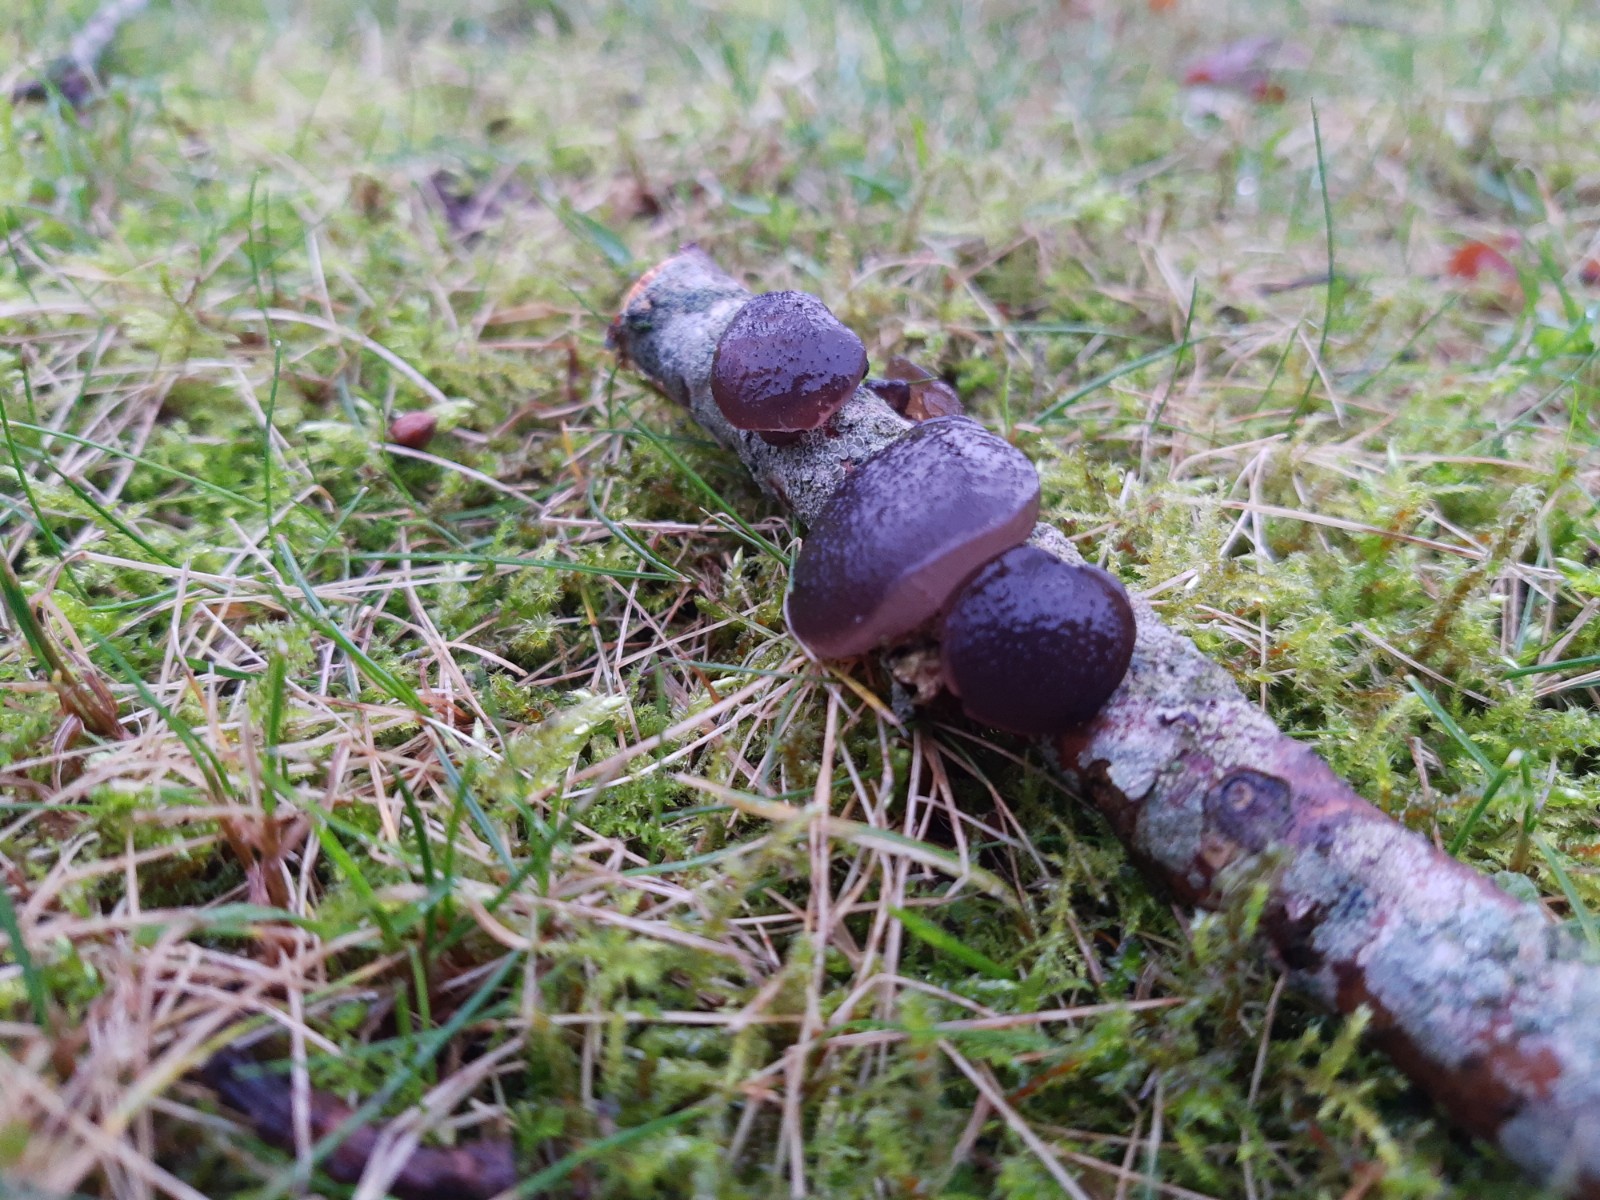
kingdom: Fungi
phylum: Basidiomycota
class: Agaricomycetes
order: Auriculariales
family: Auriculariaceae
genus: Exidia
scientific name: Exidia glandulosa
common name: ege-bævretop
